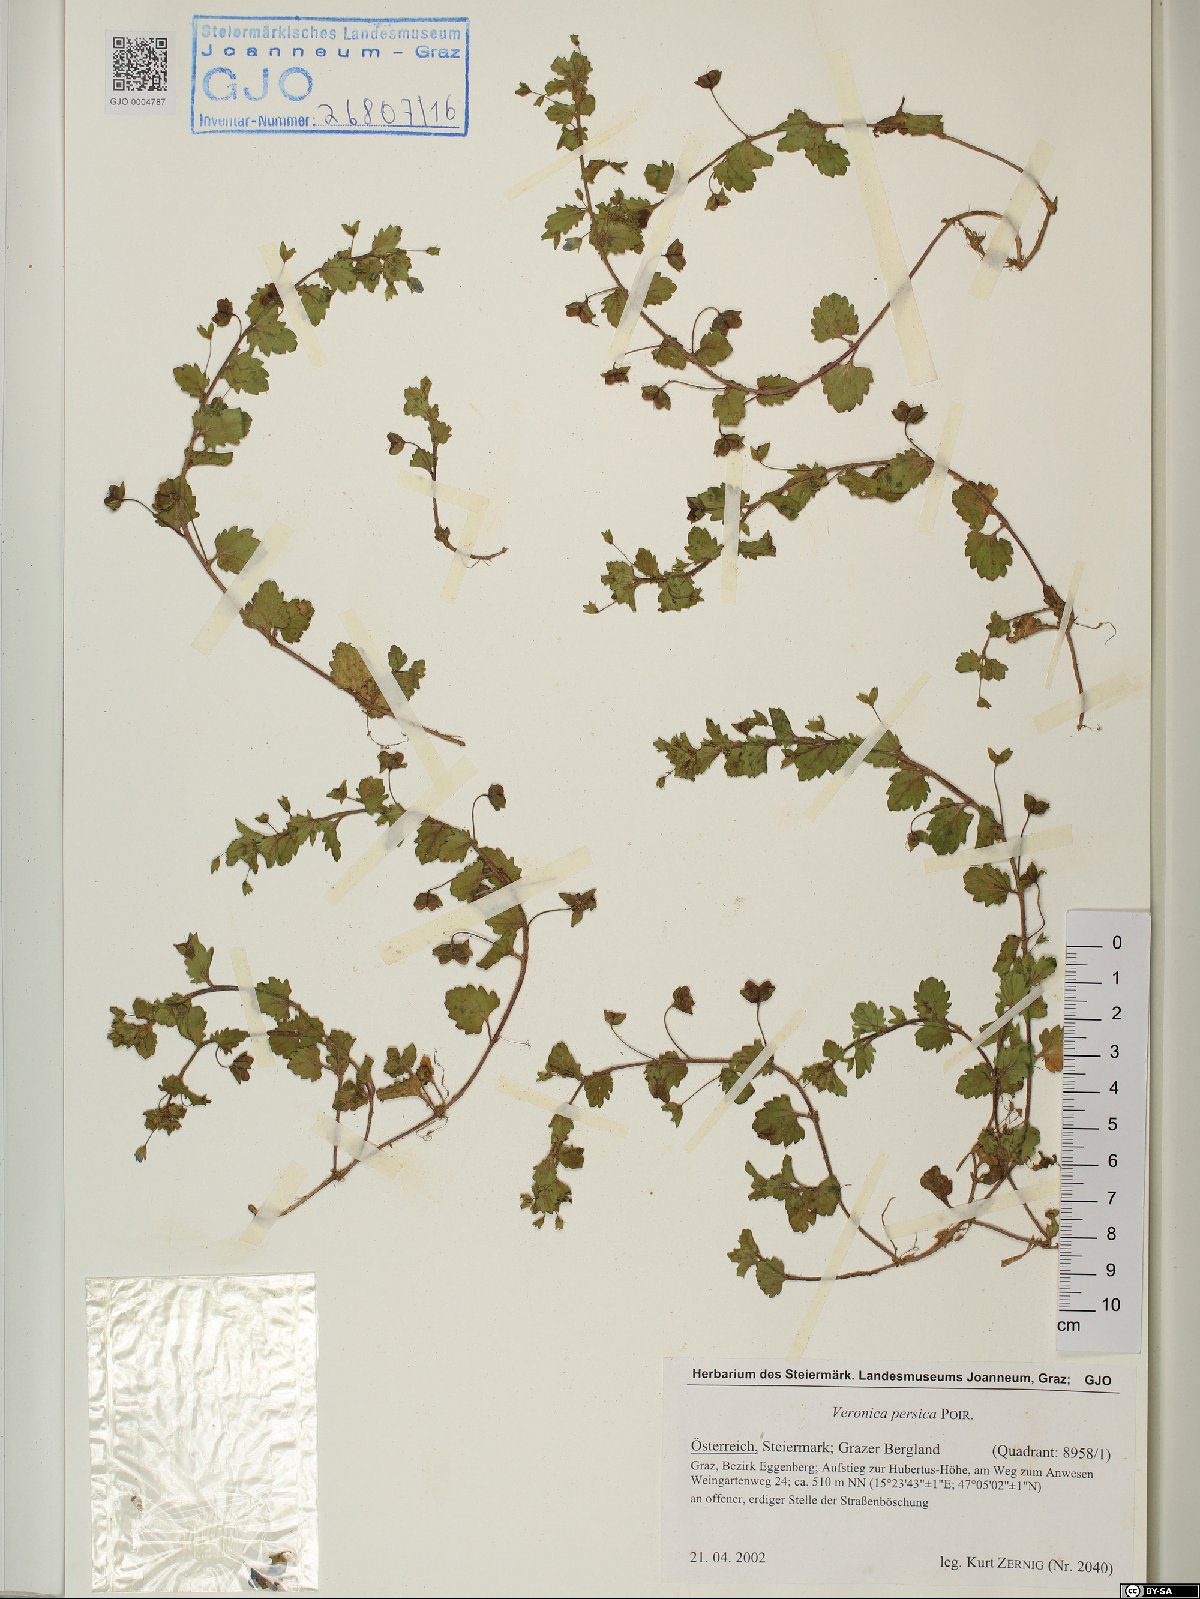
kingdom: Plantae
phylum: Tracheophyta
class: Magnoliopsida
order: Lamiales
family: Plantaginaceae
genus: Veronica
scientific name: Veronica persica
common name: Common field-speedwell
